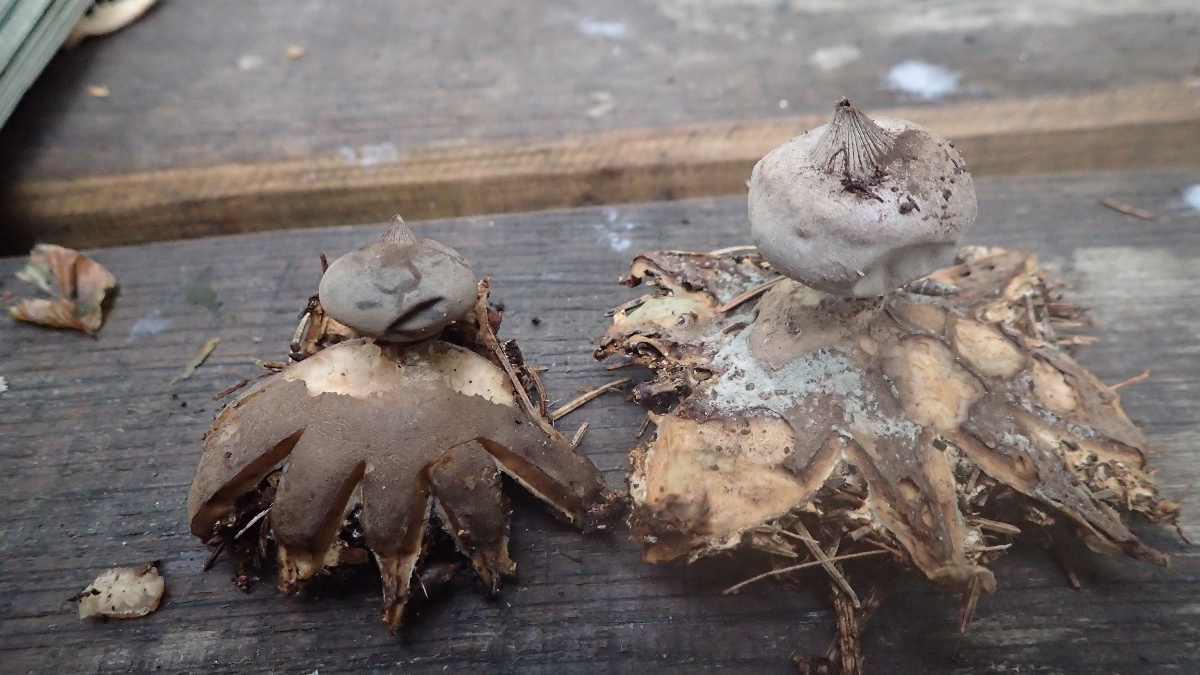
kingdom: Fungi
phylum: Basidiomycota
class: Agaricomycetes
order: Geastrales
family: Geastraceae
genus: Geastrum
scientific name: Geastrum striatum
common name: krave-stjernebold
